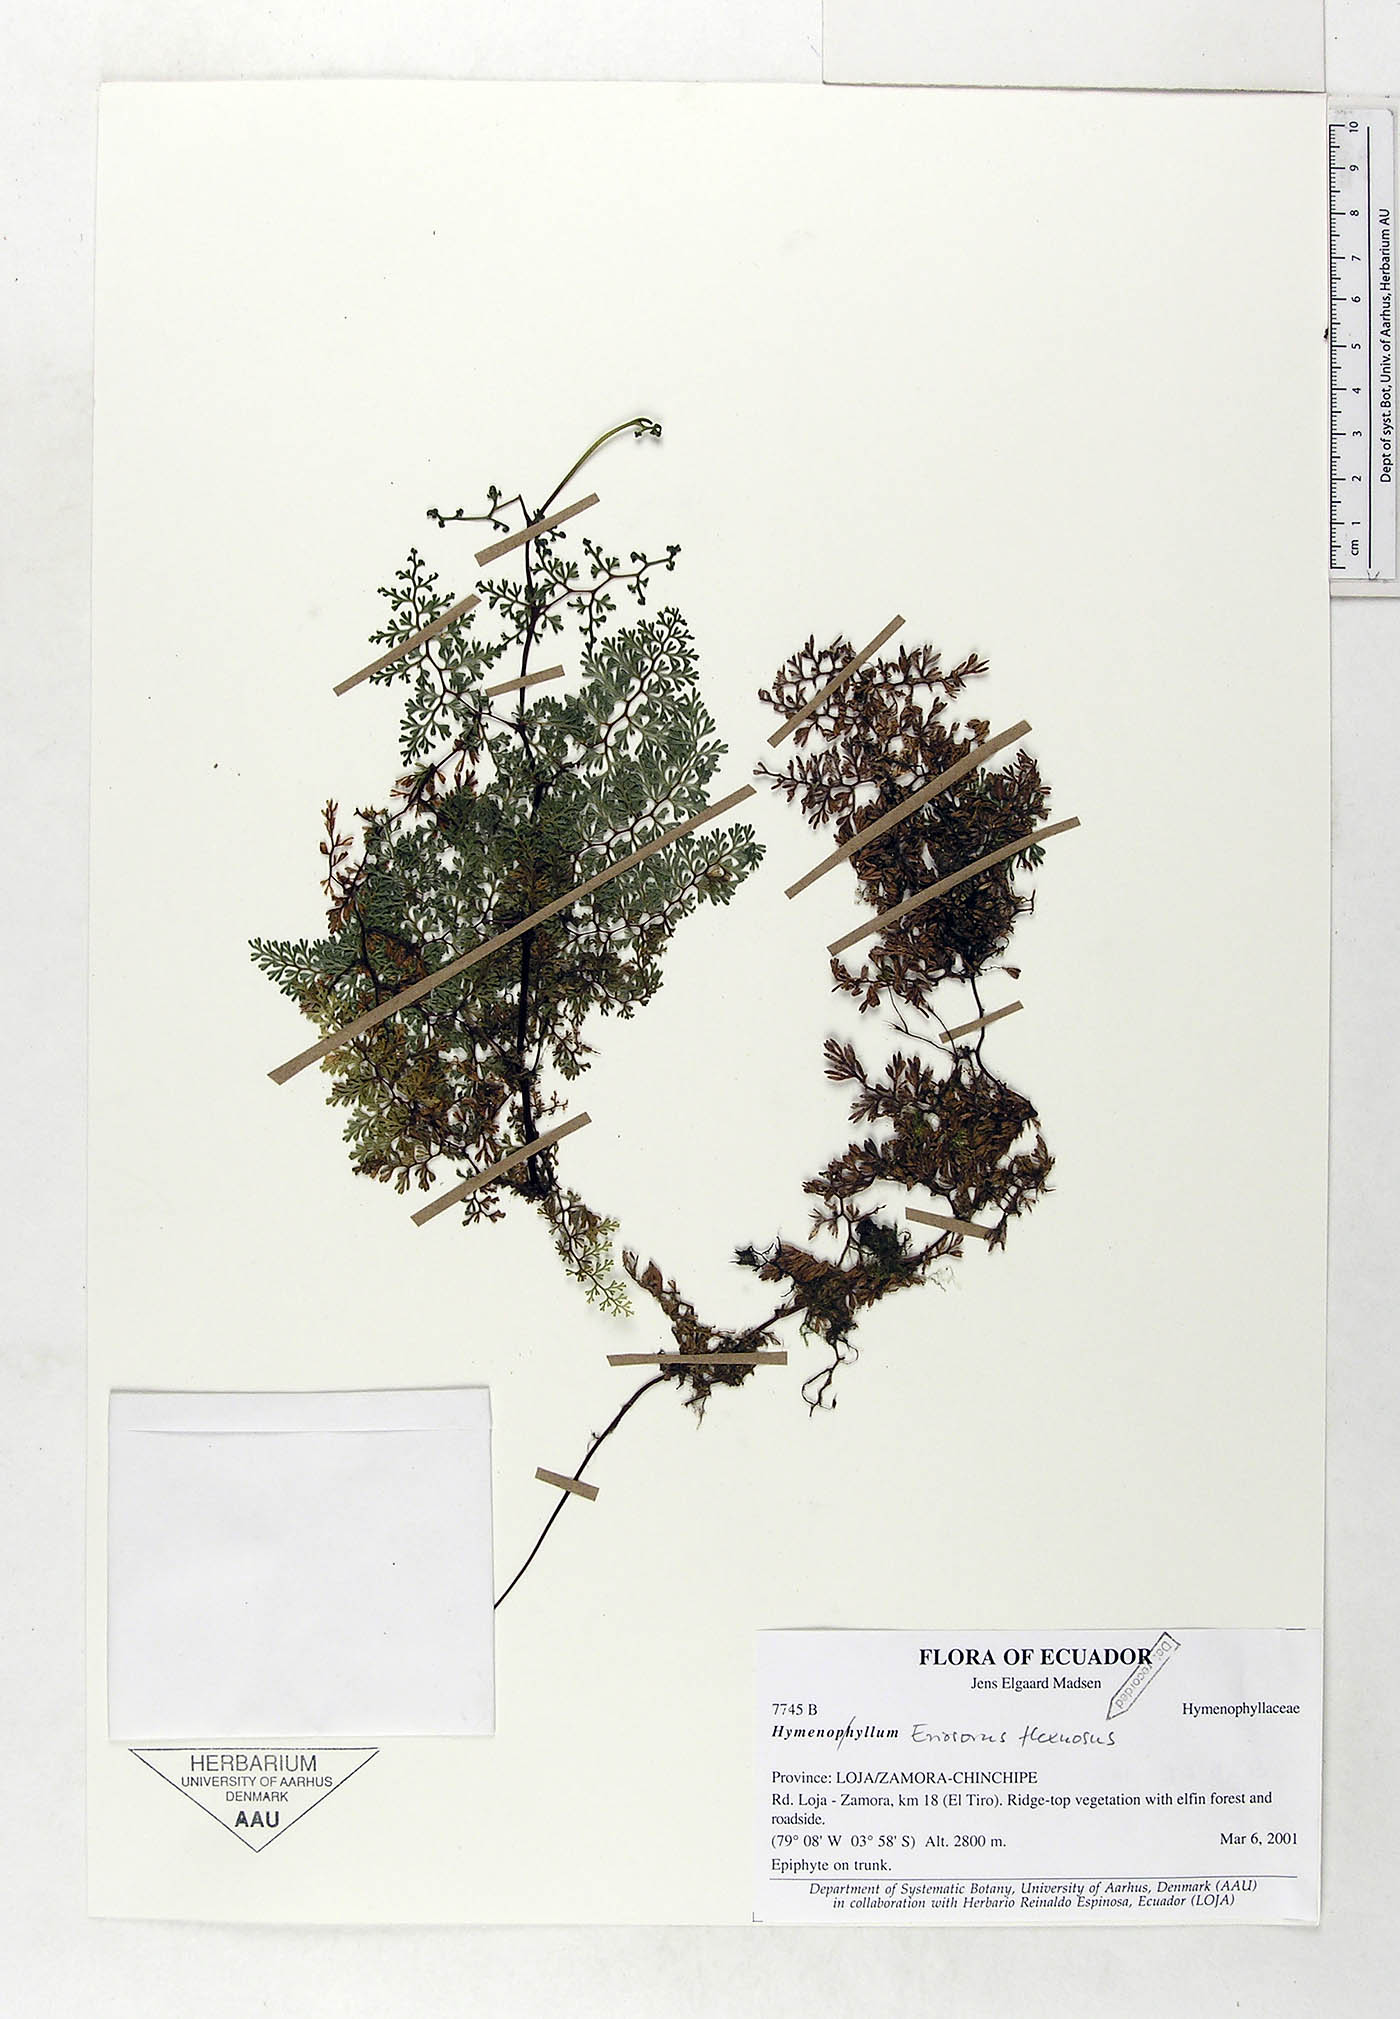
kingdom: Plantae
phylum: Tracheophyta
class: Polypodiopsida
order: Polypodiales
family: Pteridaceae
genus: Jamesonia
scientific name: Jamesonia flexuosa
